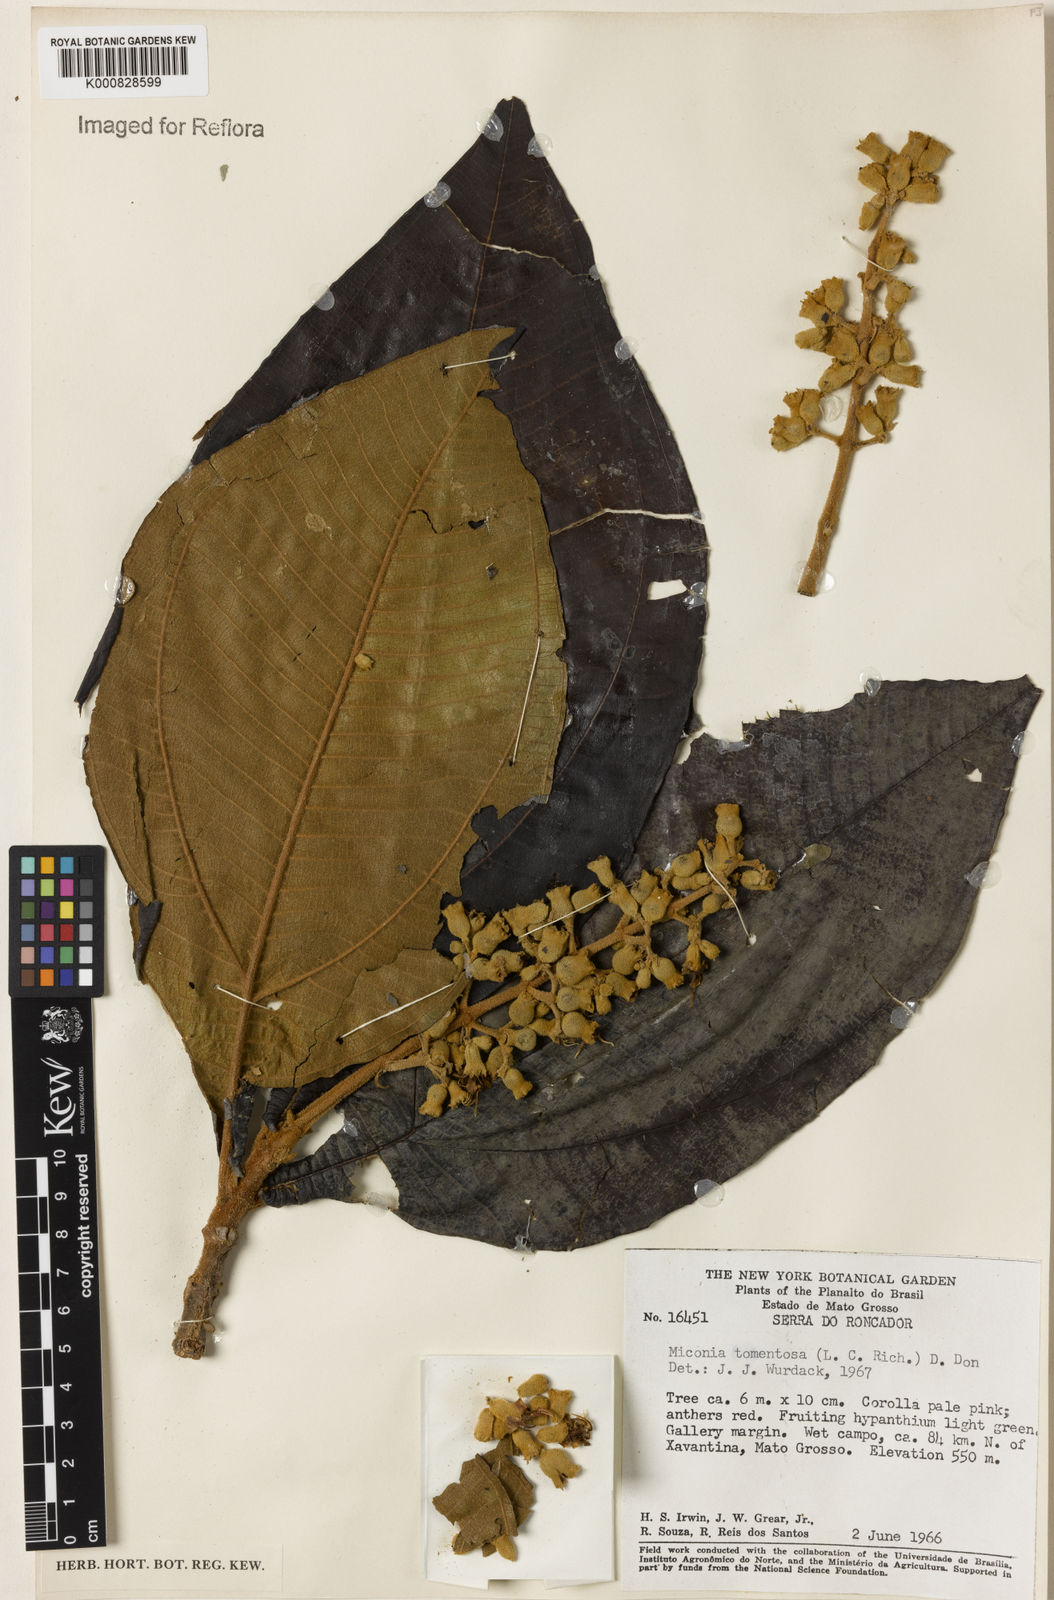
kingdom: Plantae
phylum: Tracheophyta
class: Magnoliopsida
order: Myrtales
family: Melastomataceae
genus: Miconia
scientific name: Miconia tomentosa
